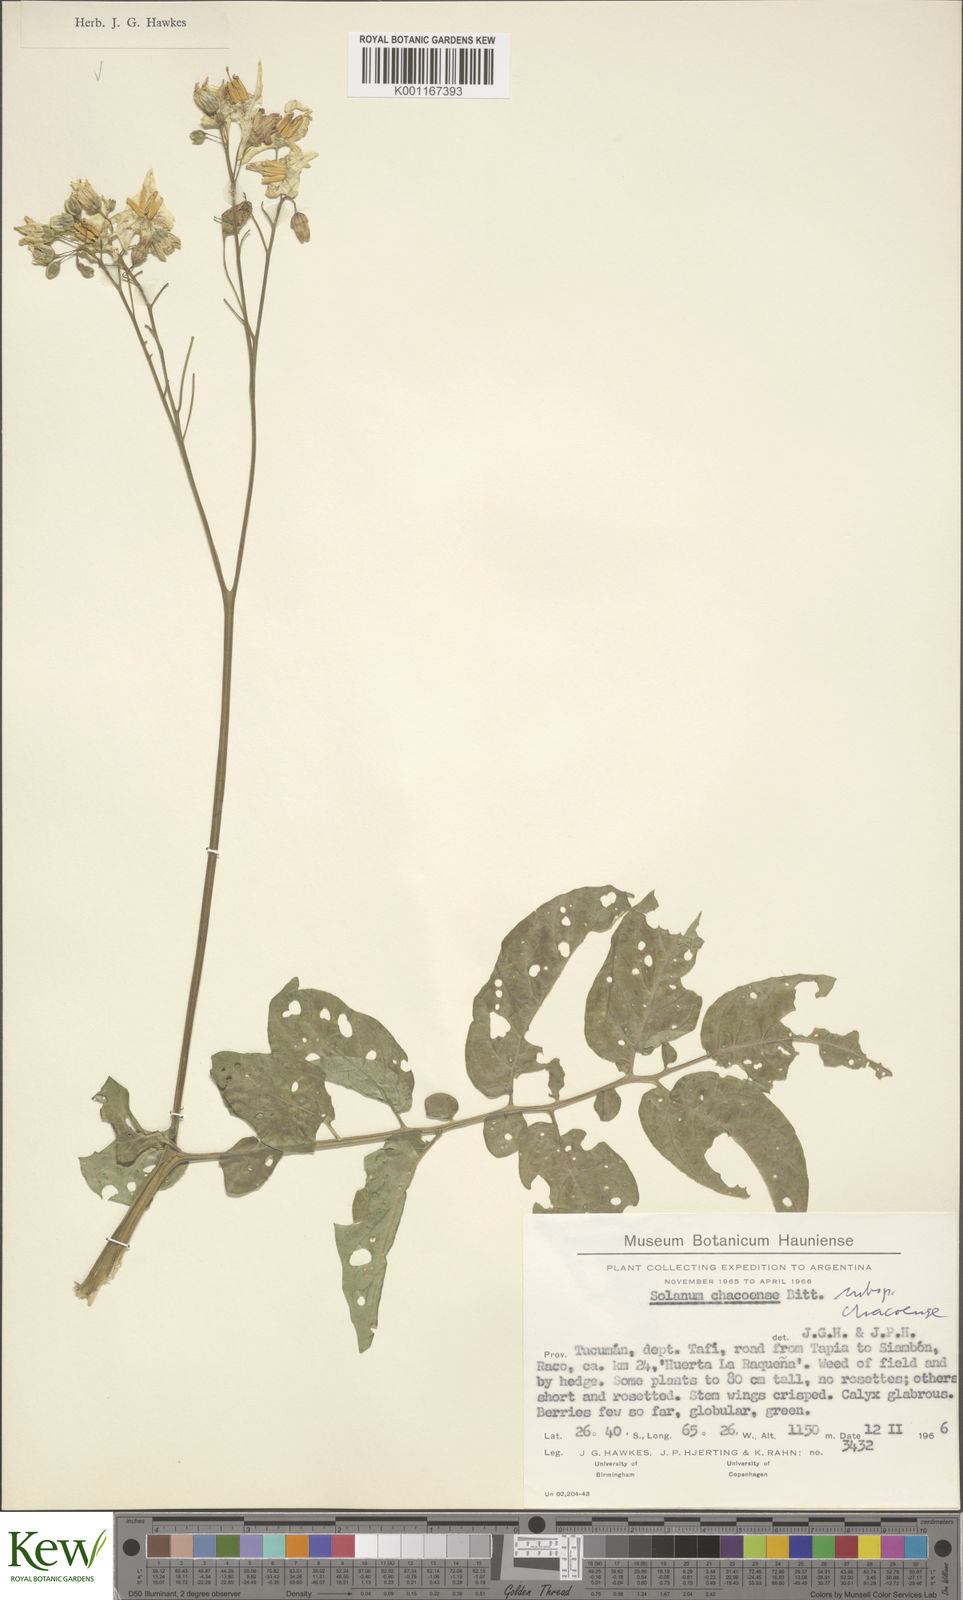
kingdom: Plantae
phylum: Tracheophyta
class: Magnoliopsida
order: Solanales
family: Solanaceae
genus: Solanum
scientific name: Solanum chacoense
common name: Chaco potato
